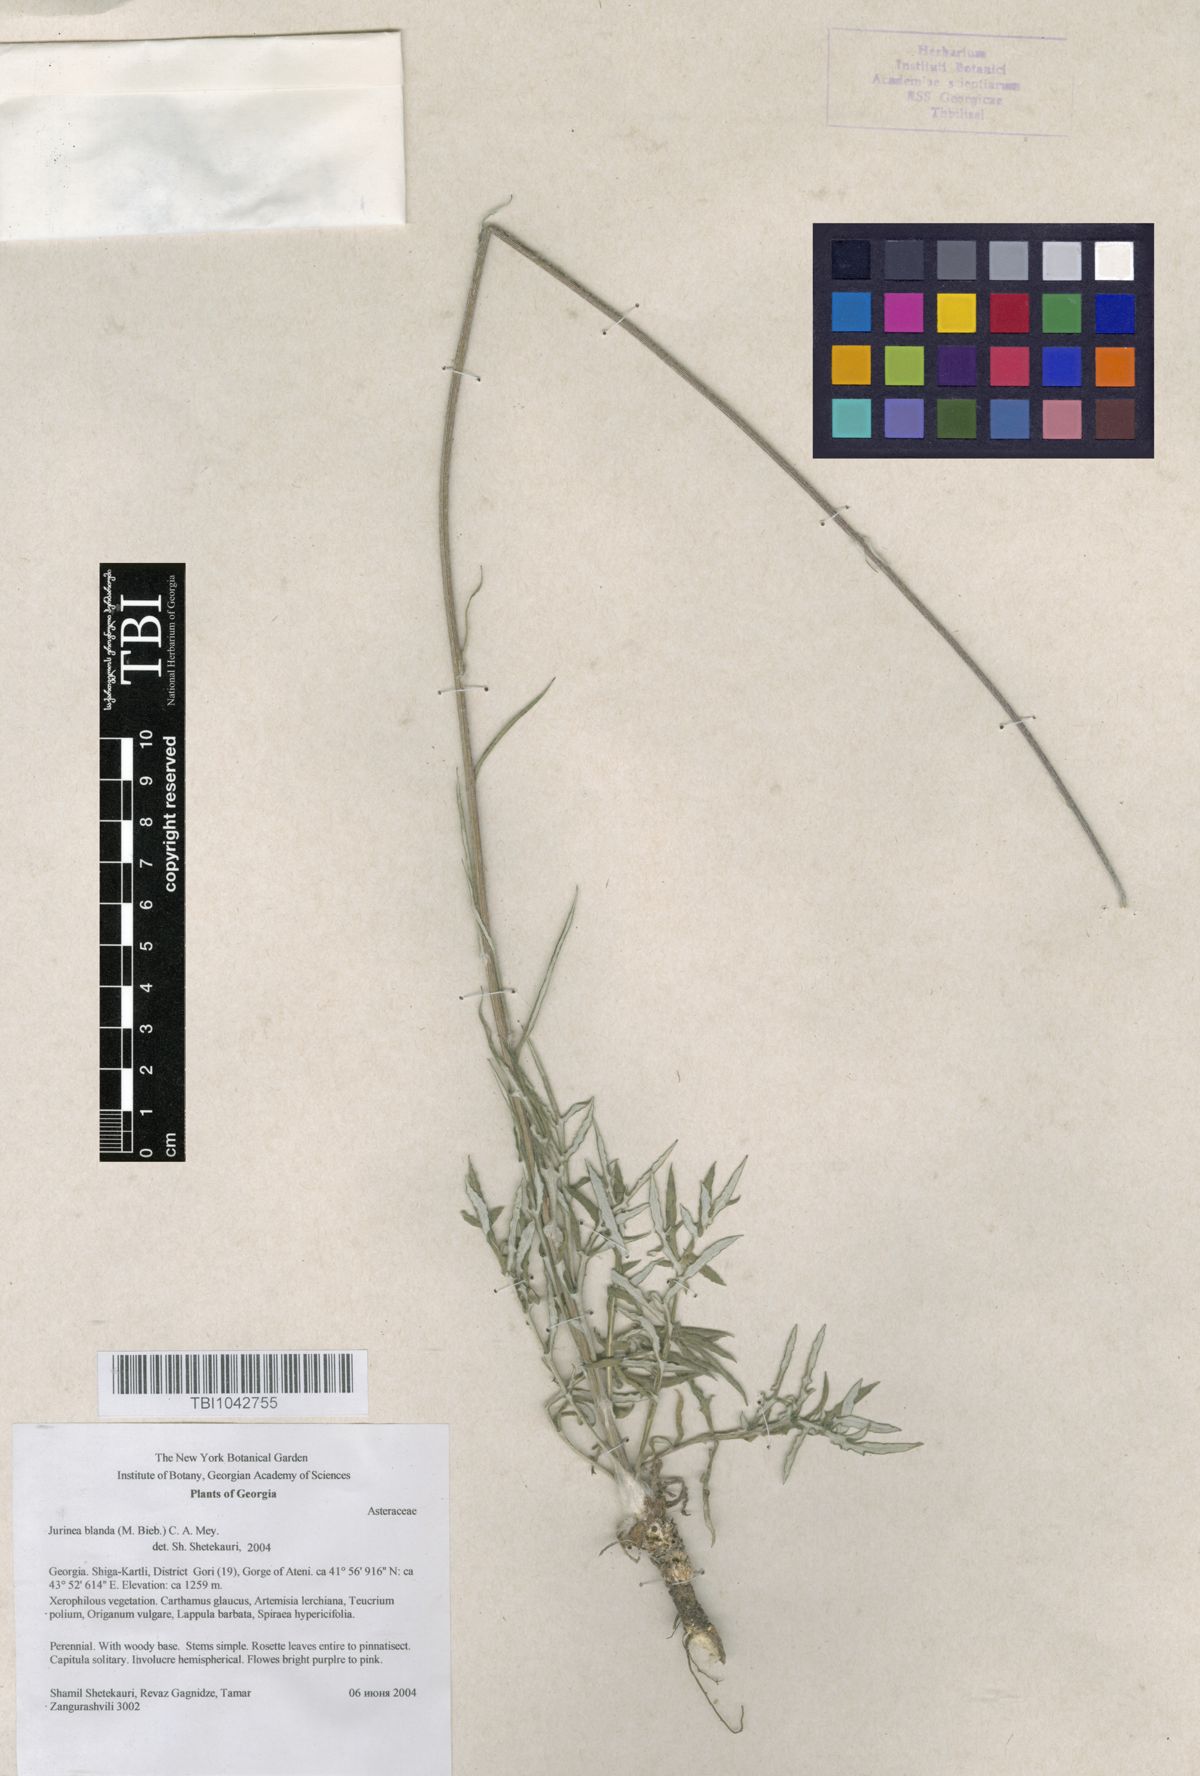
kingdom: Plantae
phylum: Tracheophyta
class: Magnoliopsida
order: Asterales
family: Asteraceae
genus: Jurinea
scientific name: Jurinea blanda
